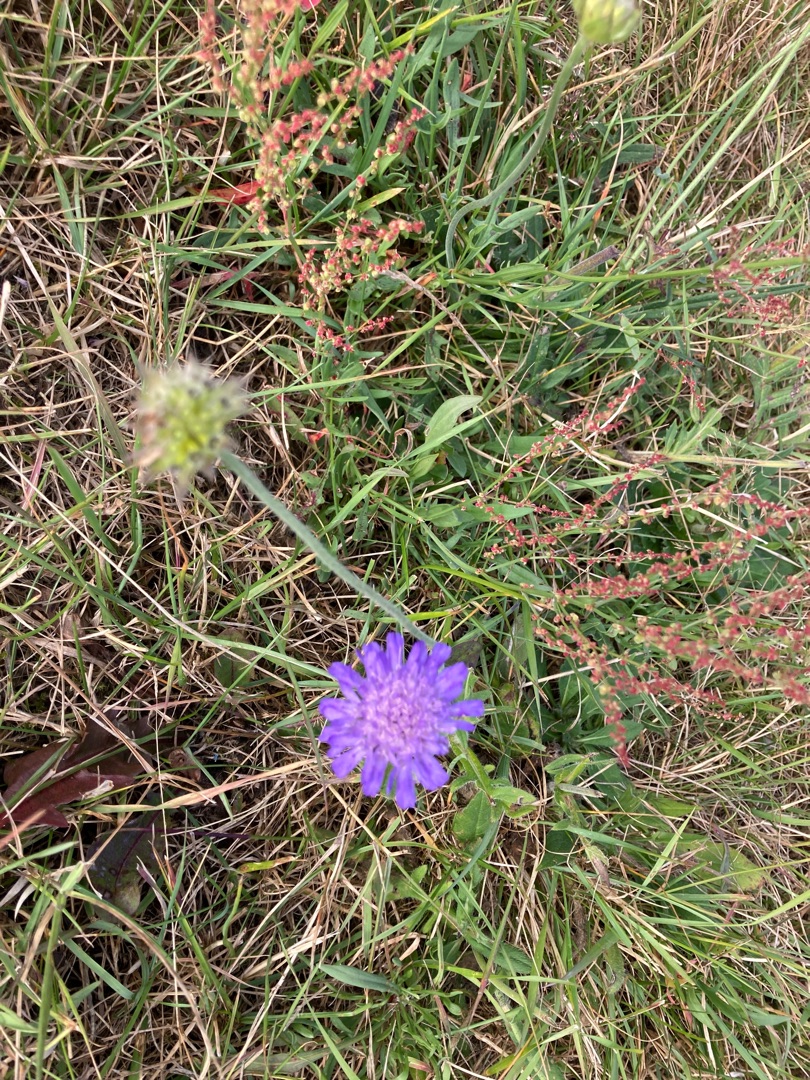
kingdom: Plantae
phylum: Tracheophyta
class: Magnoliopsida
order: Dipsacales
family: Caprifoliaceae
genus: Knautia
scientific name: Knautia arvensis
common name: Blåhat
